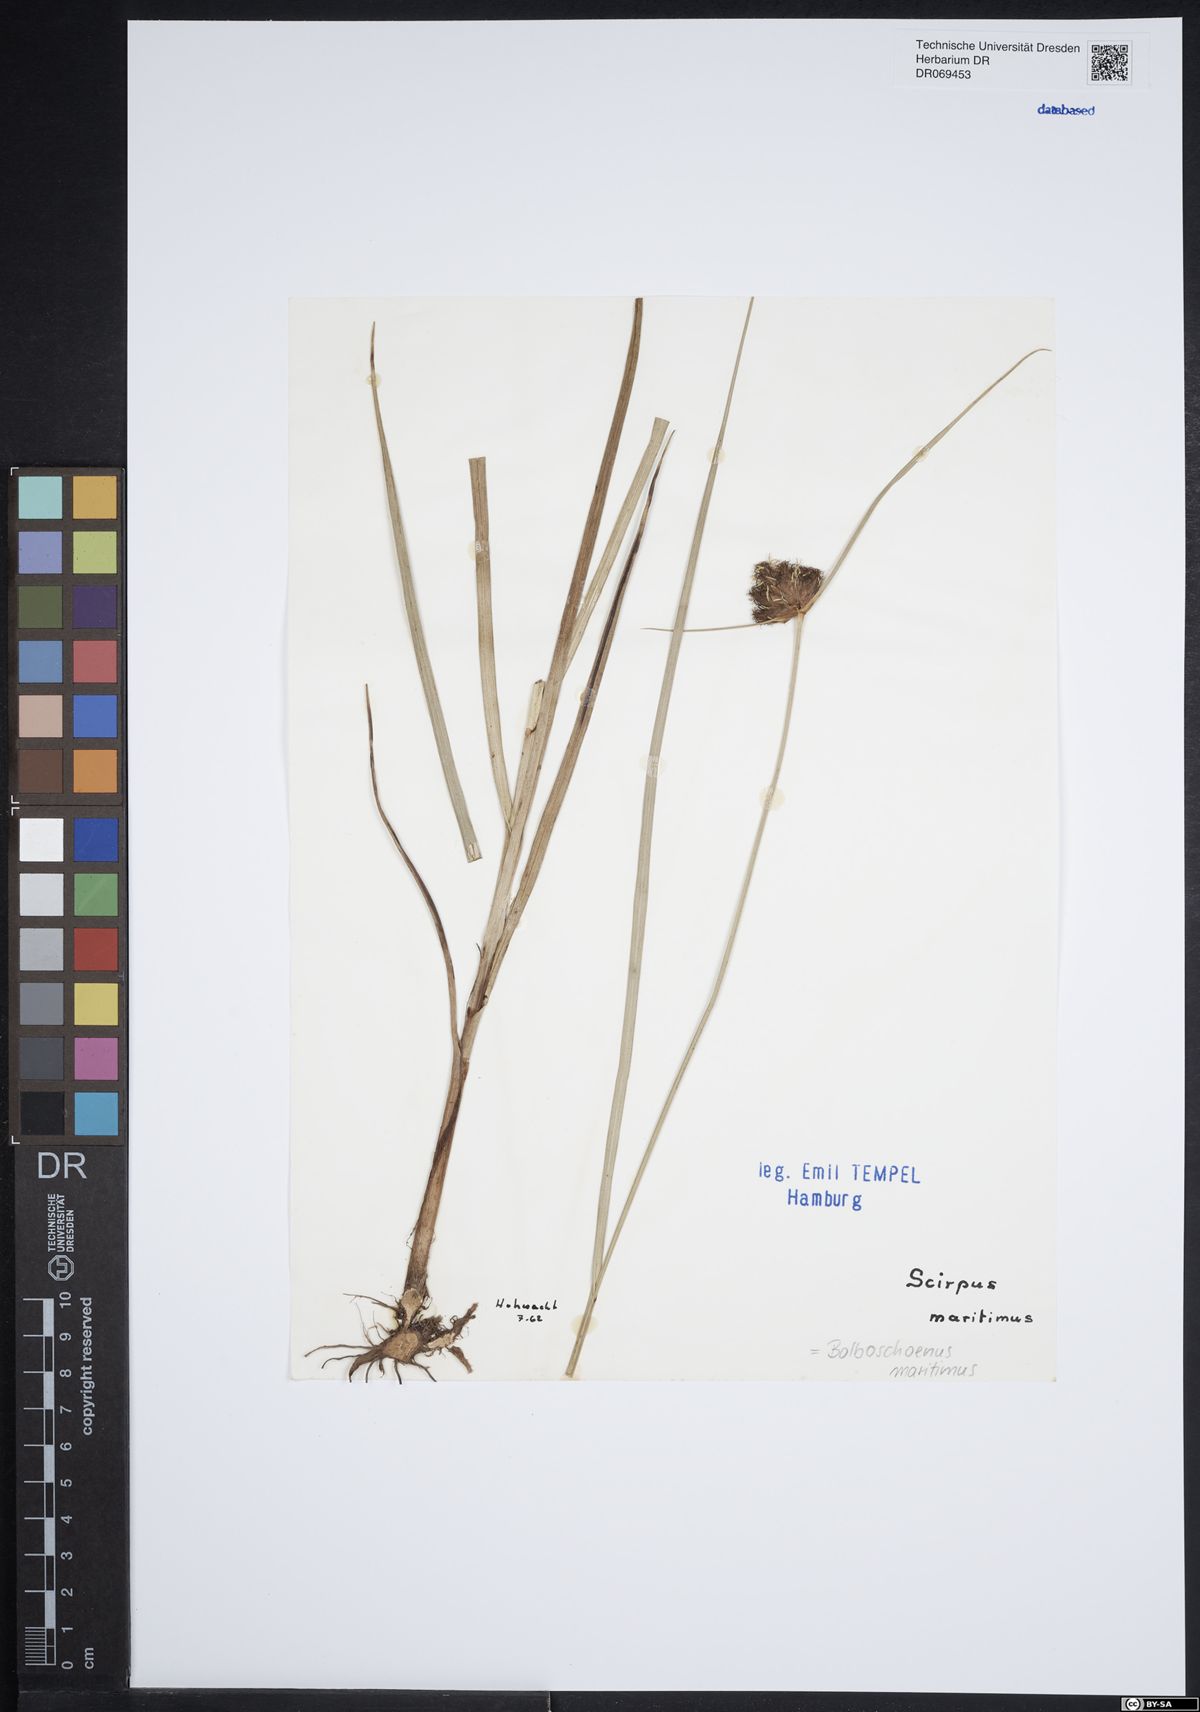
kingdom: Plantae
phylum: Tracheophyta
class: Liliopsida
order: Poales
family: Cyperaceae
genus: Bolboschoenus
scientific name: Bolboschoenus maritimus
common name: Sea club-rush
